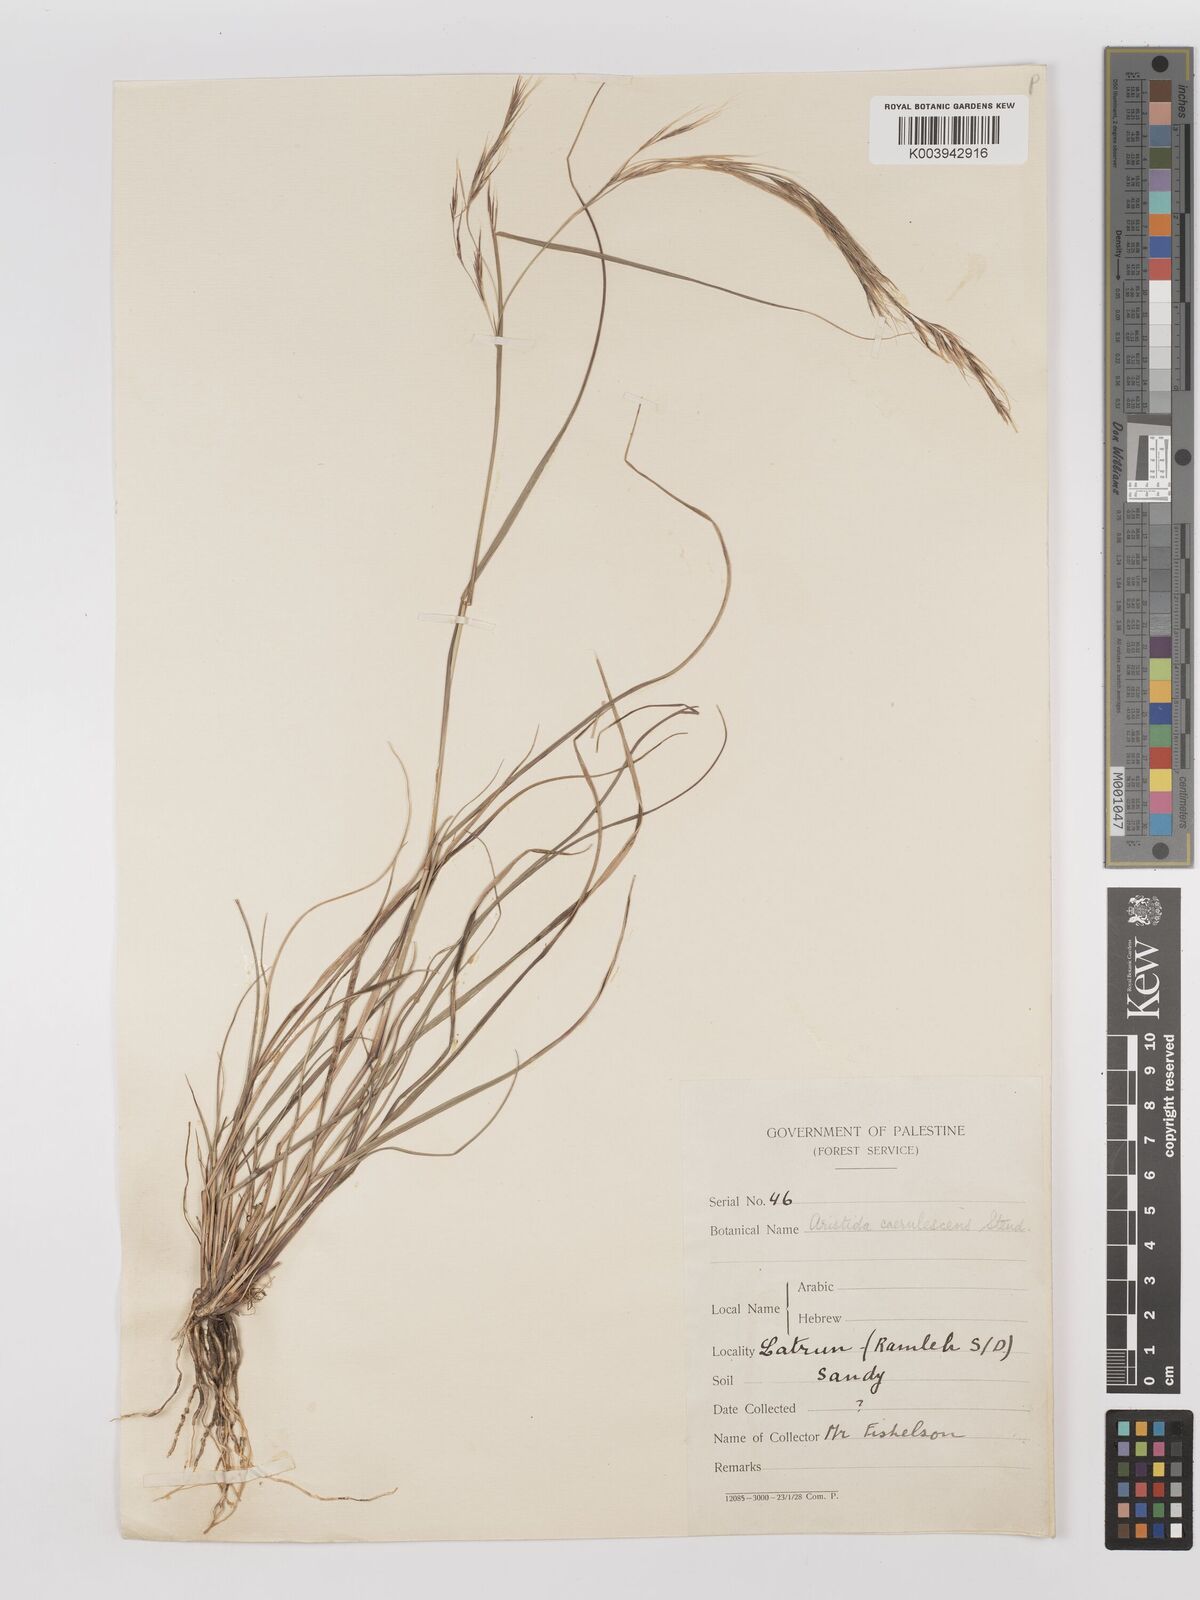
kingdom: Plantae
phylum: Tracheophyta
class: Liliopsida
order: Poales
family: Poaceae
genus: Aristida
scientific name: Aristida adscensionis
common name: Sixweeks threeawn
